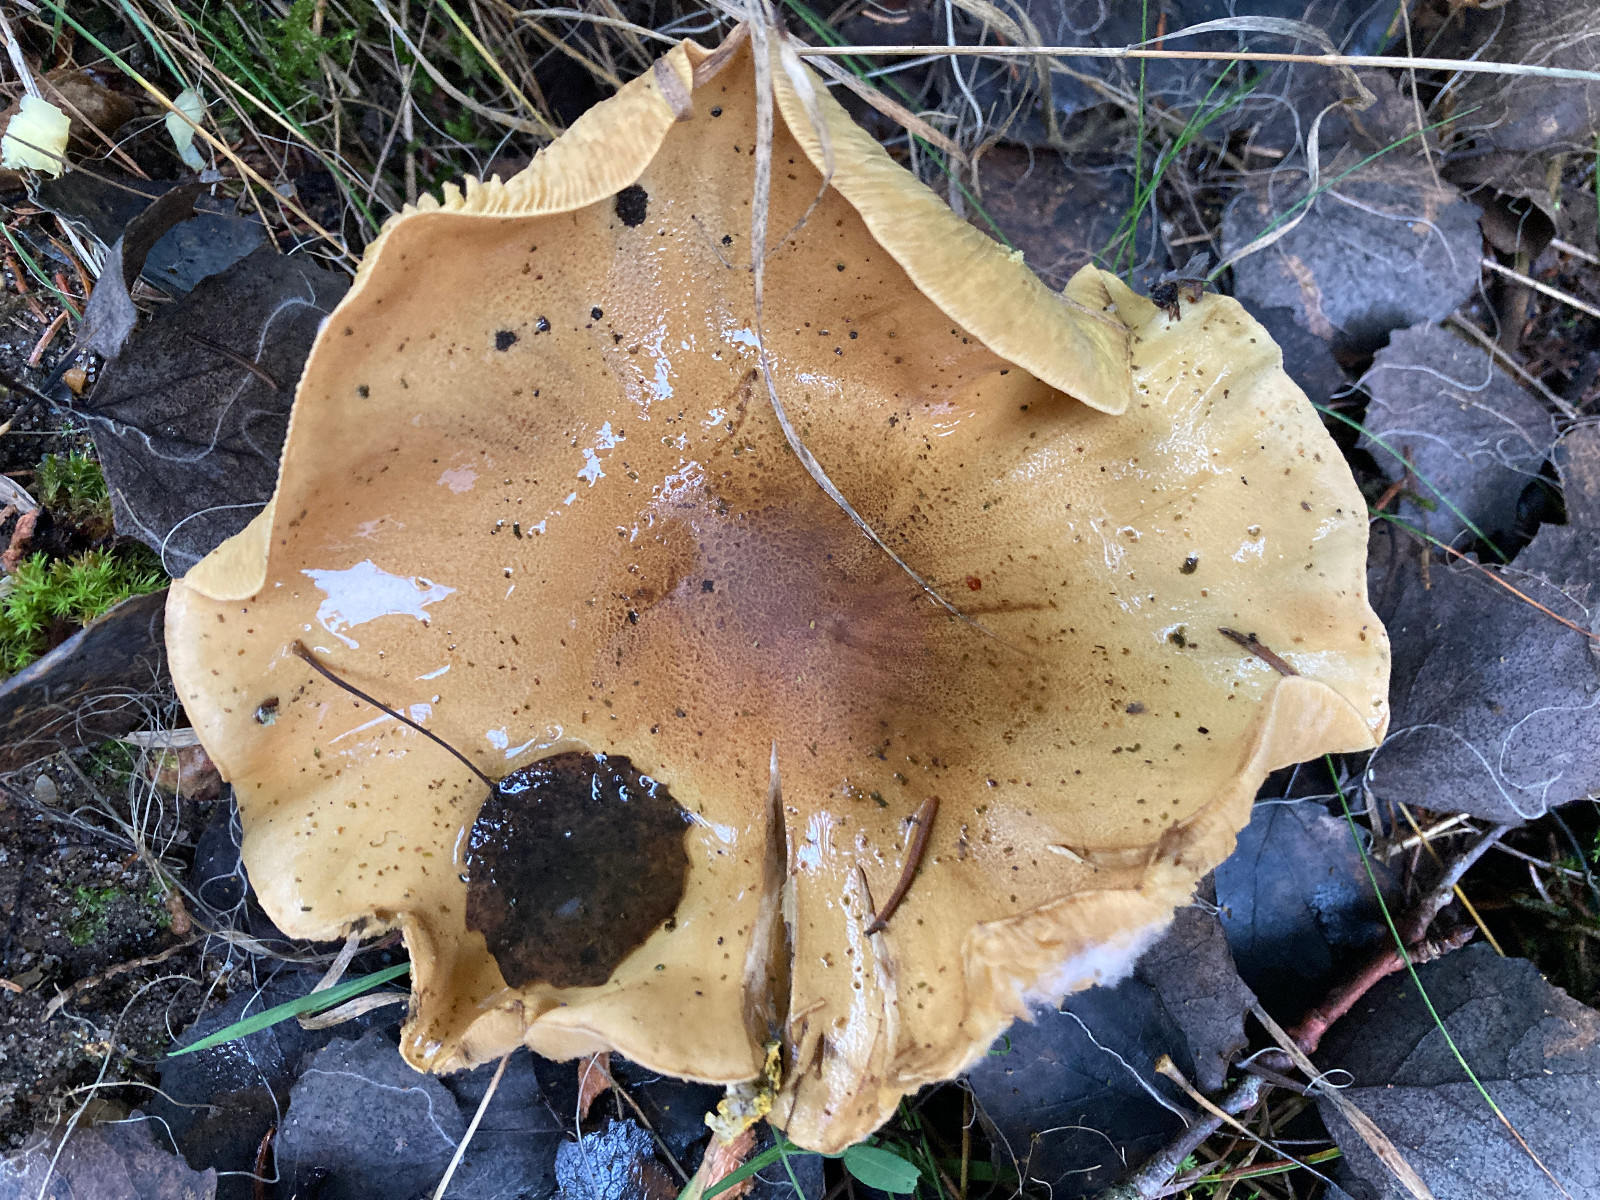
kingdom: Fungi
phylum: Basidiomycota
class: Agaricomycetes
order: Agaricales
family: Tricholomataceae
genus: Tricholoma
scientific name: Tricholoma frondosae
